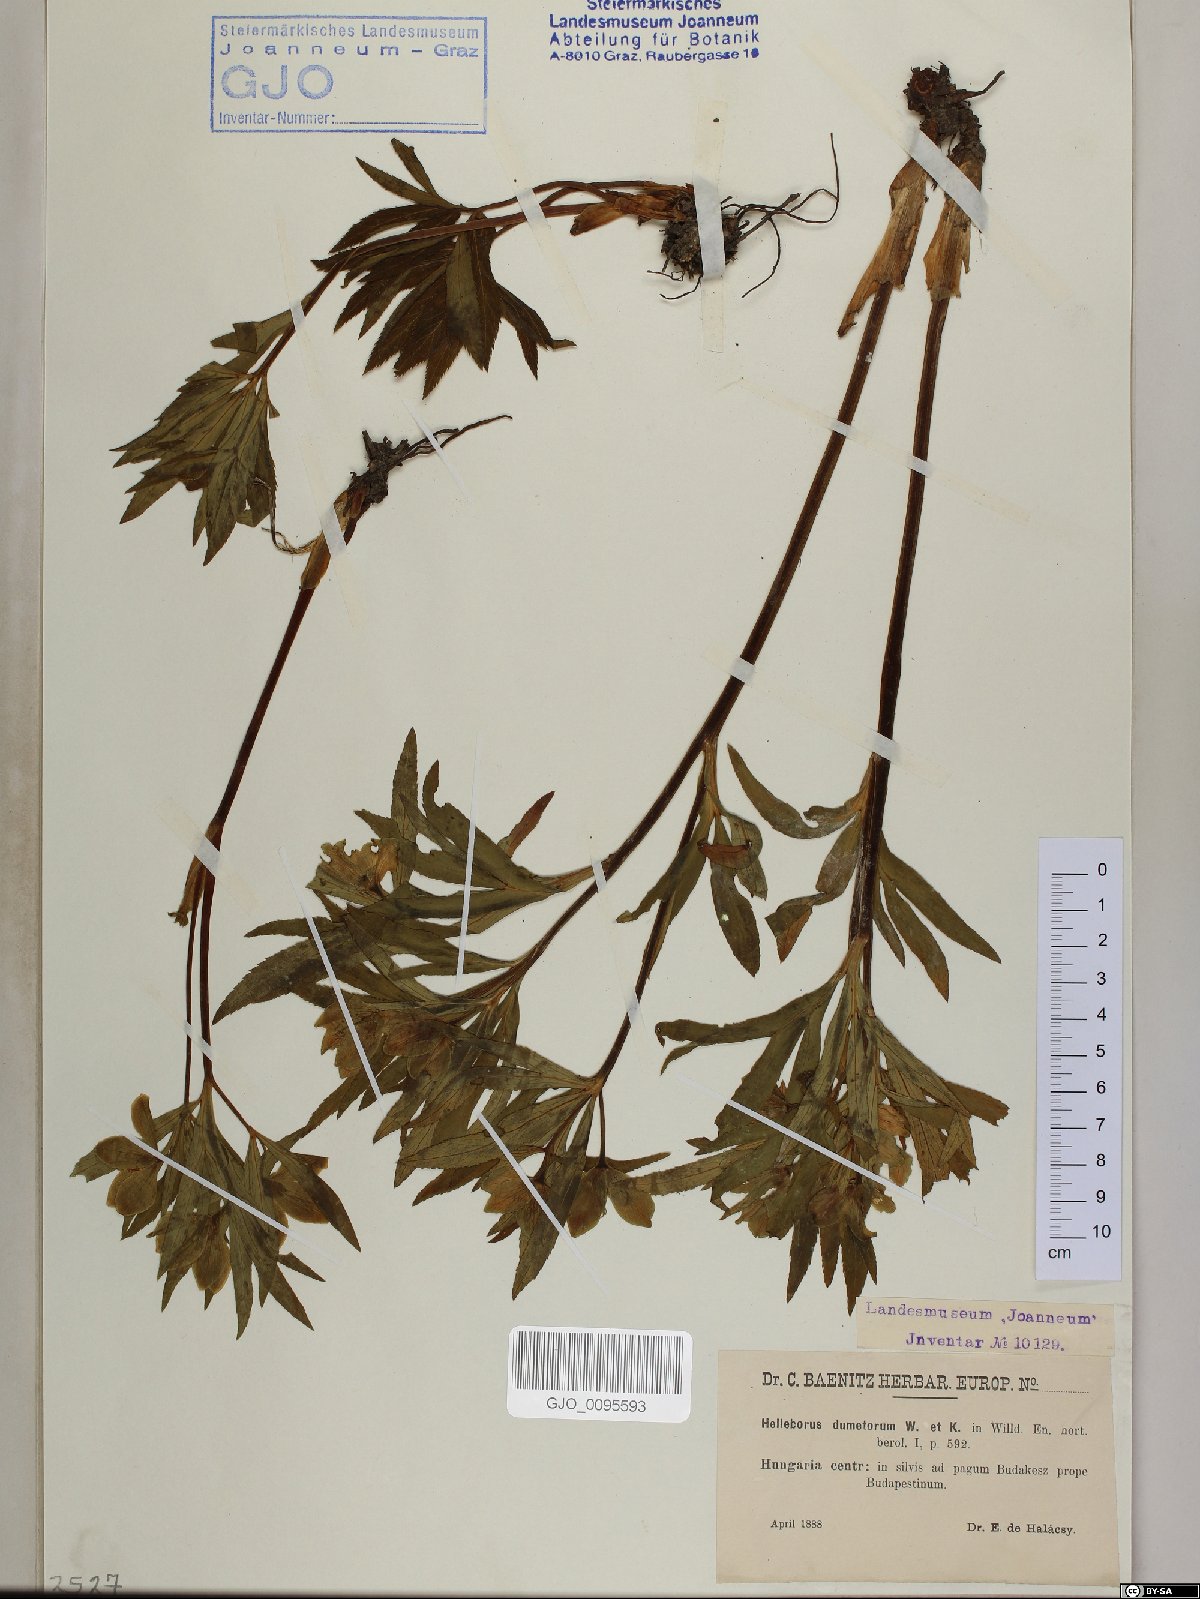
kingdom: Plantae
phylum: Tracheophyta
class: Magnoliopsida
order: Ranunculales
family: Ranunculaceae
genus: Helleborus
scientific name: Helleborus dumetorum
